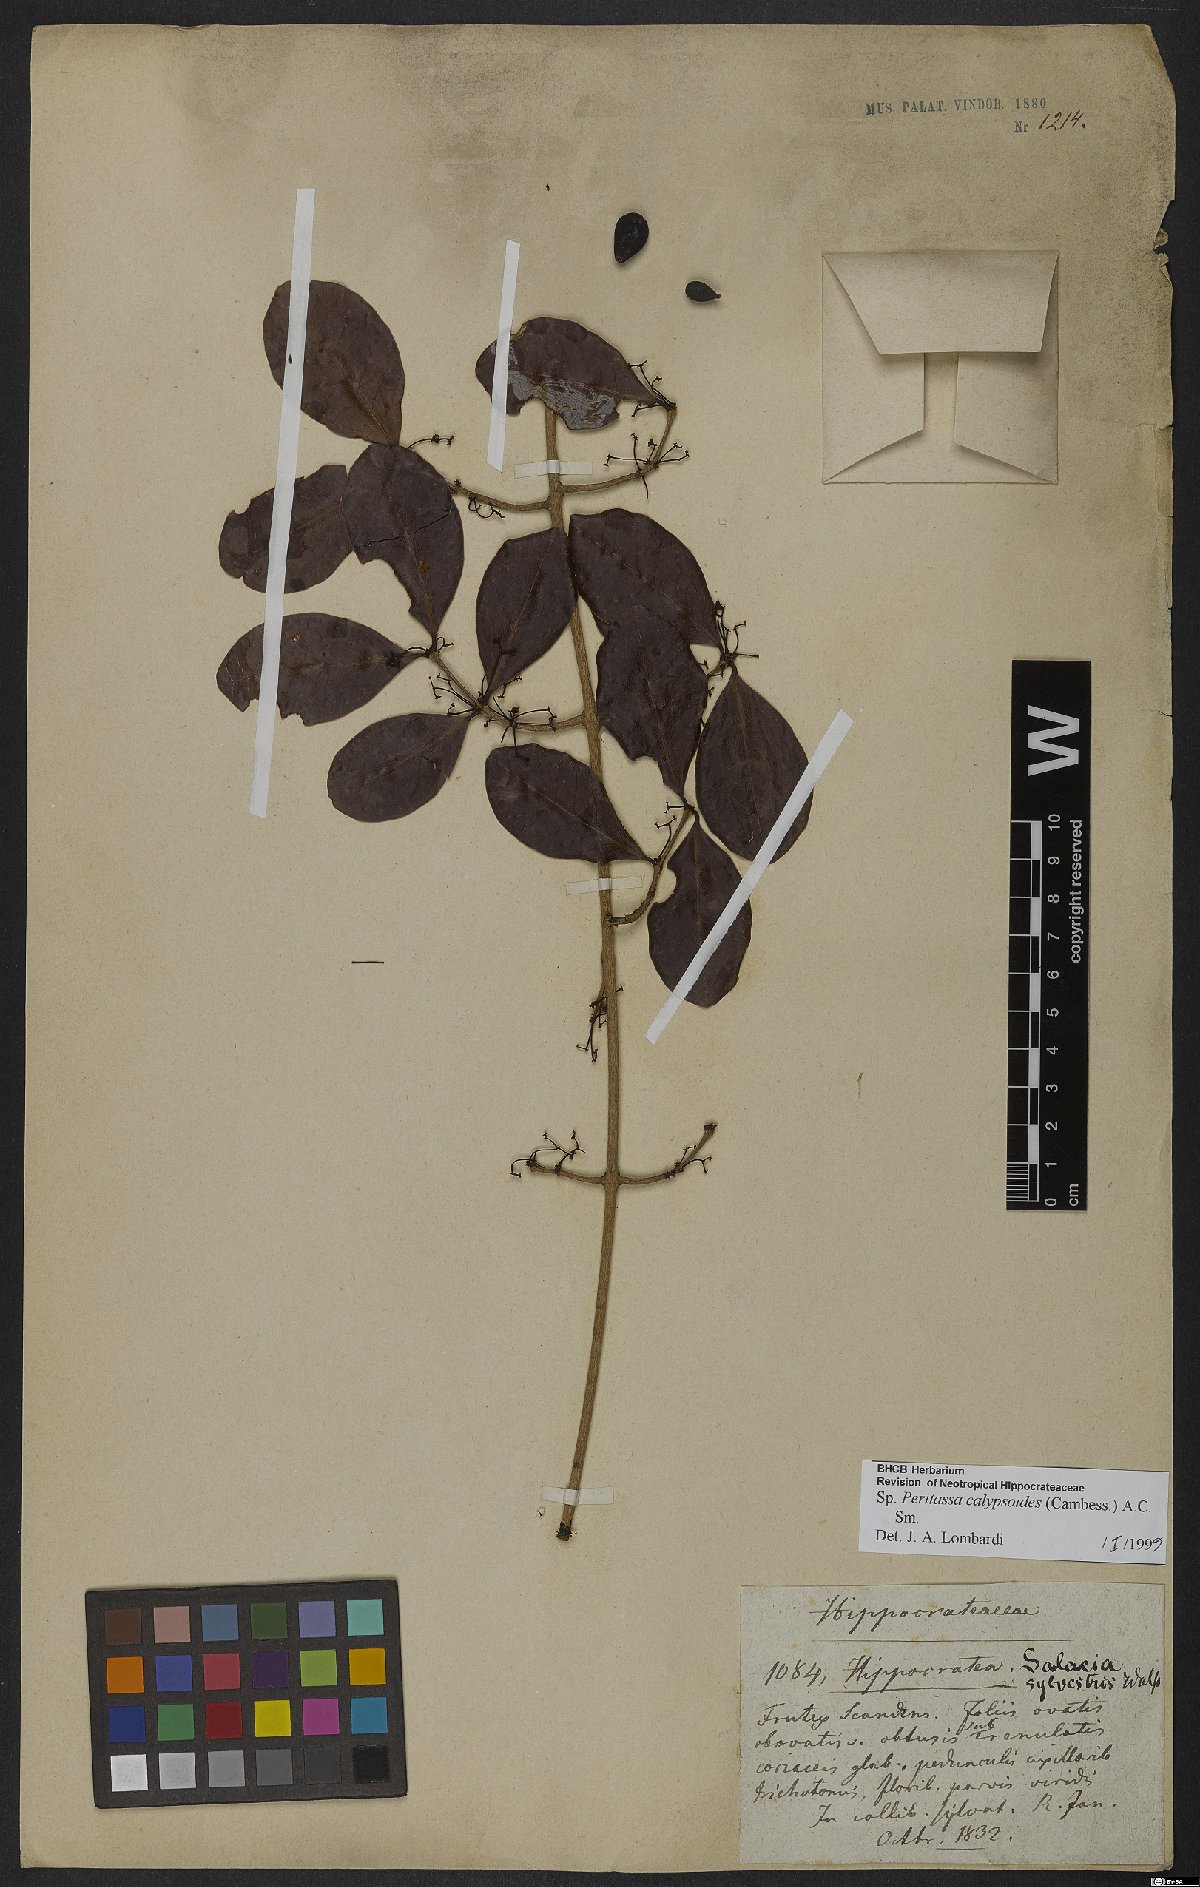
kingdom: Plantae
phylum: Tracheophyta
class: Magnoliopsida
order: Celastrales
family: Celastraceae
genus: Peritassa
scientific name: Peritassa calypsoides
